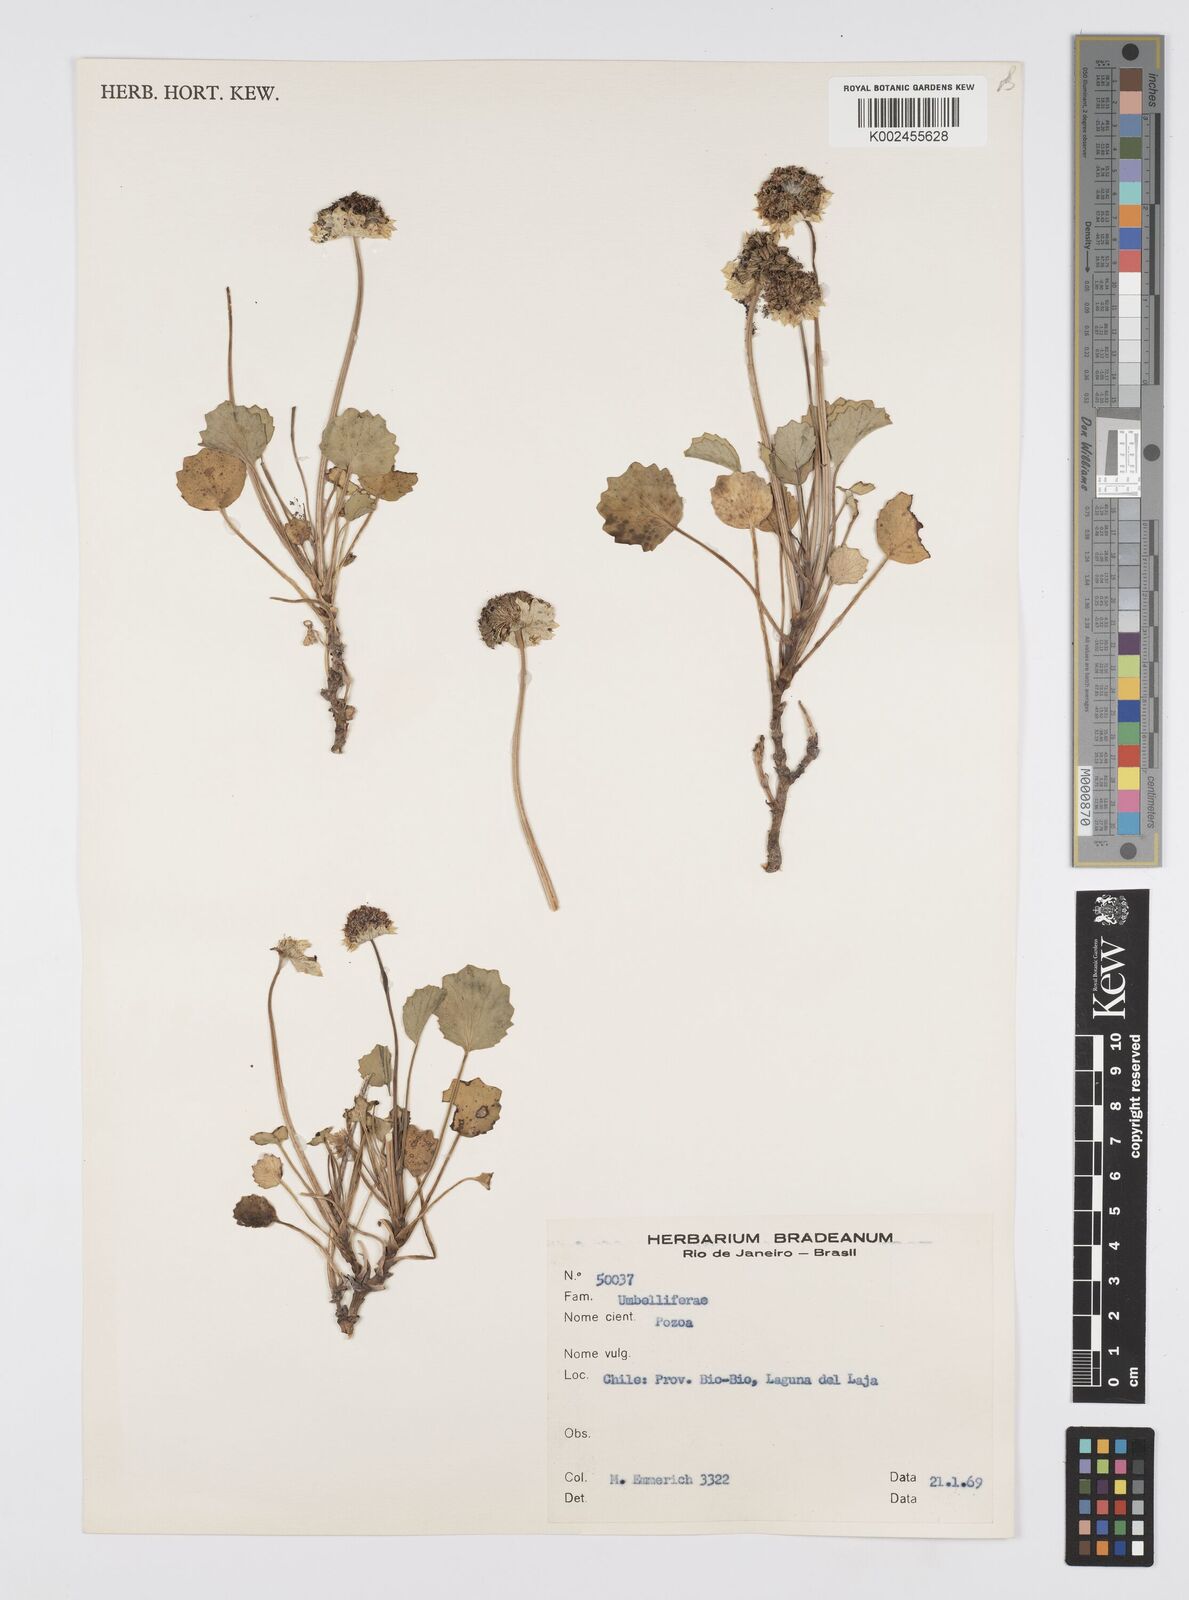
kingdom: Plantae
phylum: Tracheophyta
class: Magnoliopsida
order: Apiales
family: Apiaceae
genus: Pozoa
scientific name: Pozoa
